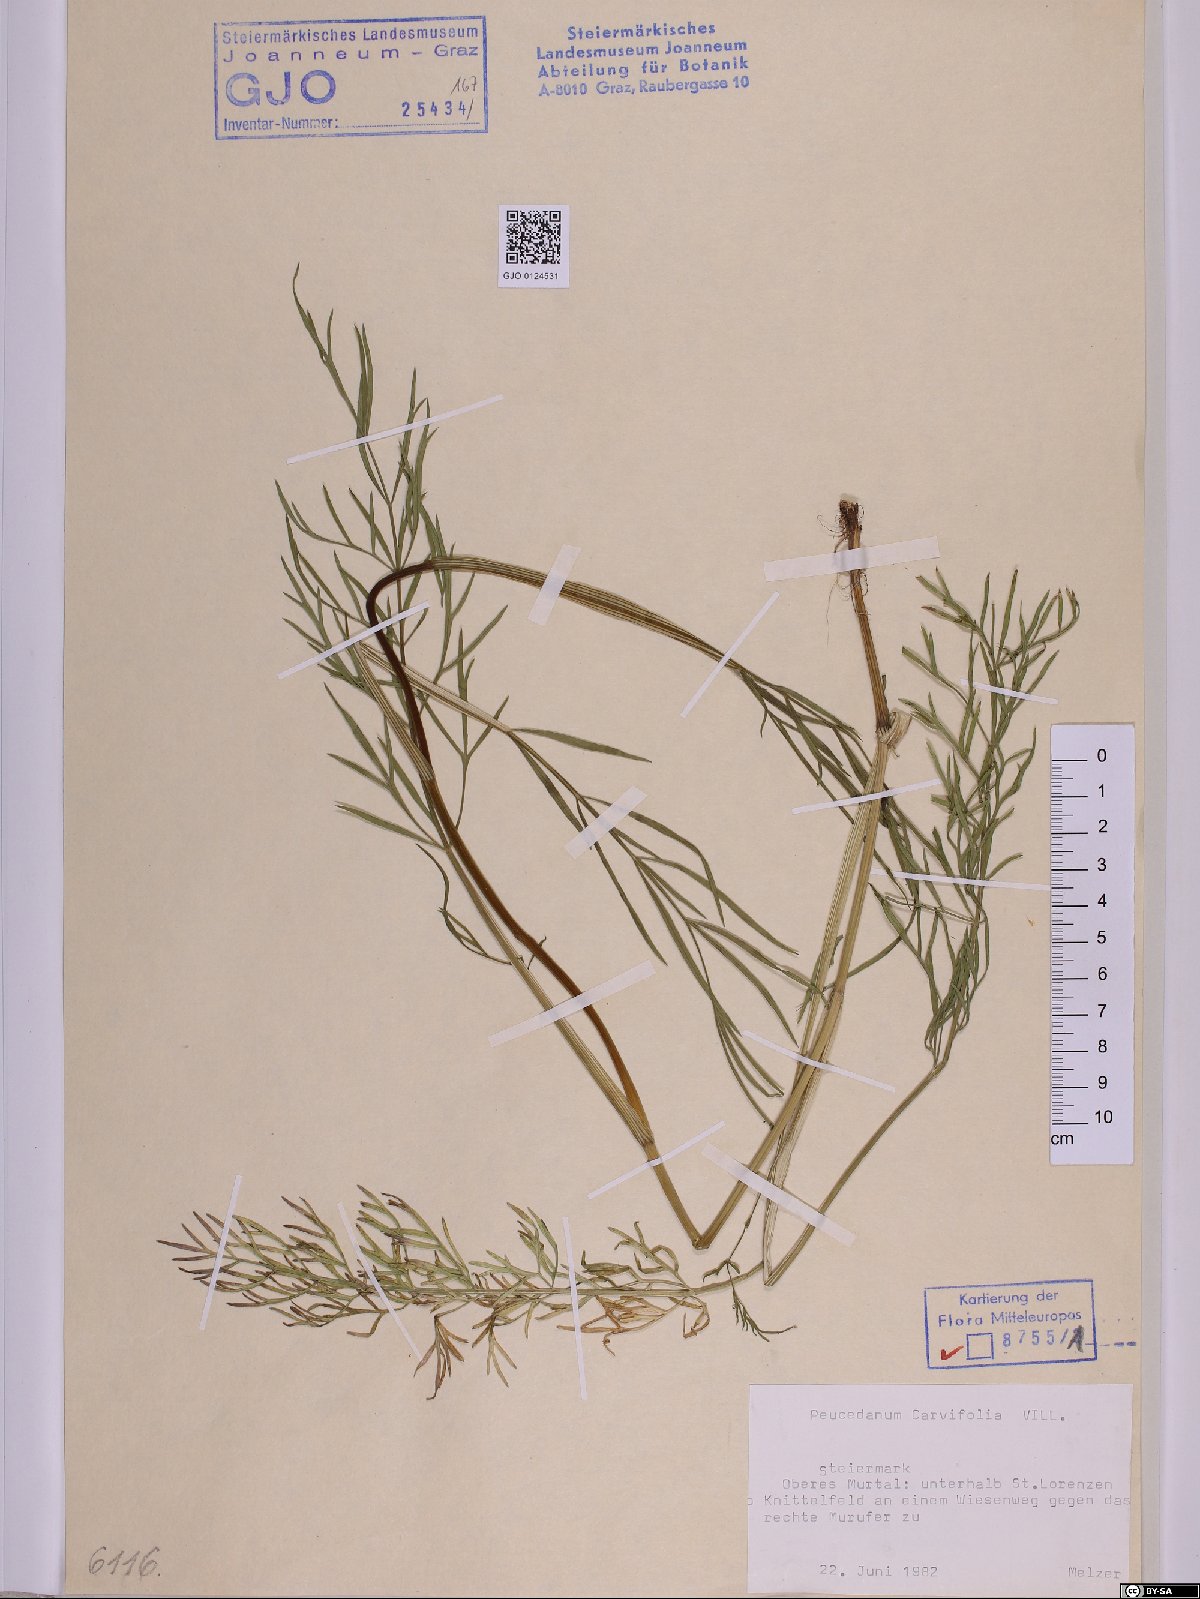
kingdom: Plantae
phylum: Tracheophyta
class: Magnoliopsida
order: Apiales
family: Apiaceae
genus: Dichoropetalum
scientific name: Dichoropetalum carvifolia
